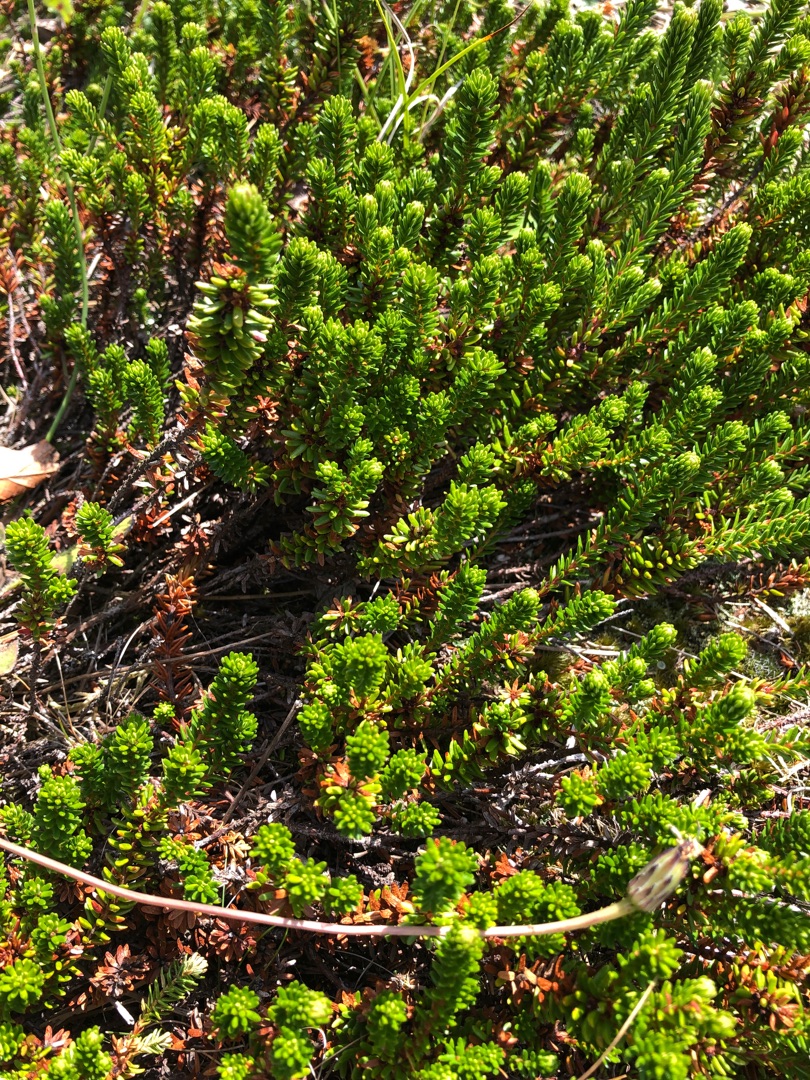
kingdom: Plantae
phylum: Tracheophyta
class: Magnoliopsida
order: Ericales
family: Ericaceae
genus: Empetrum
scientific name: Empetrum nigrum
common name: Revling
